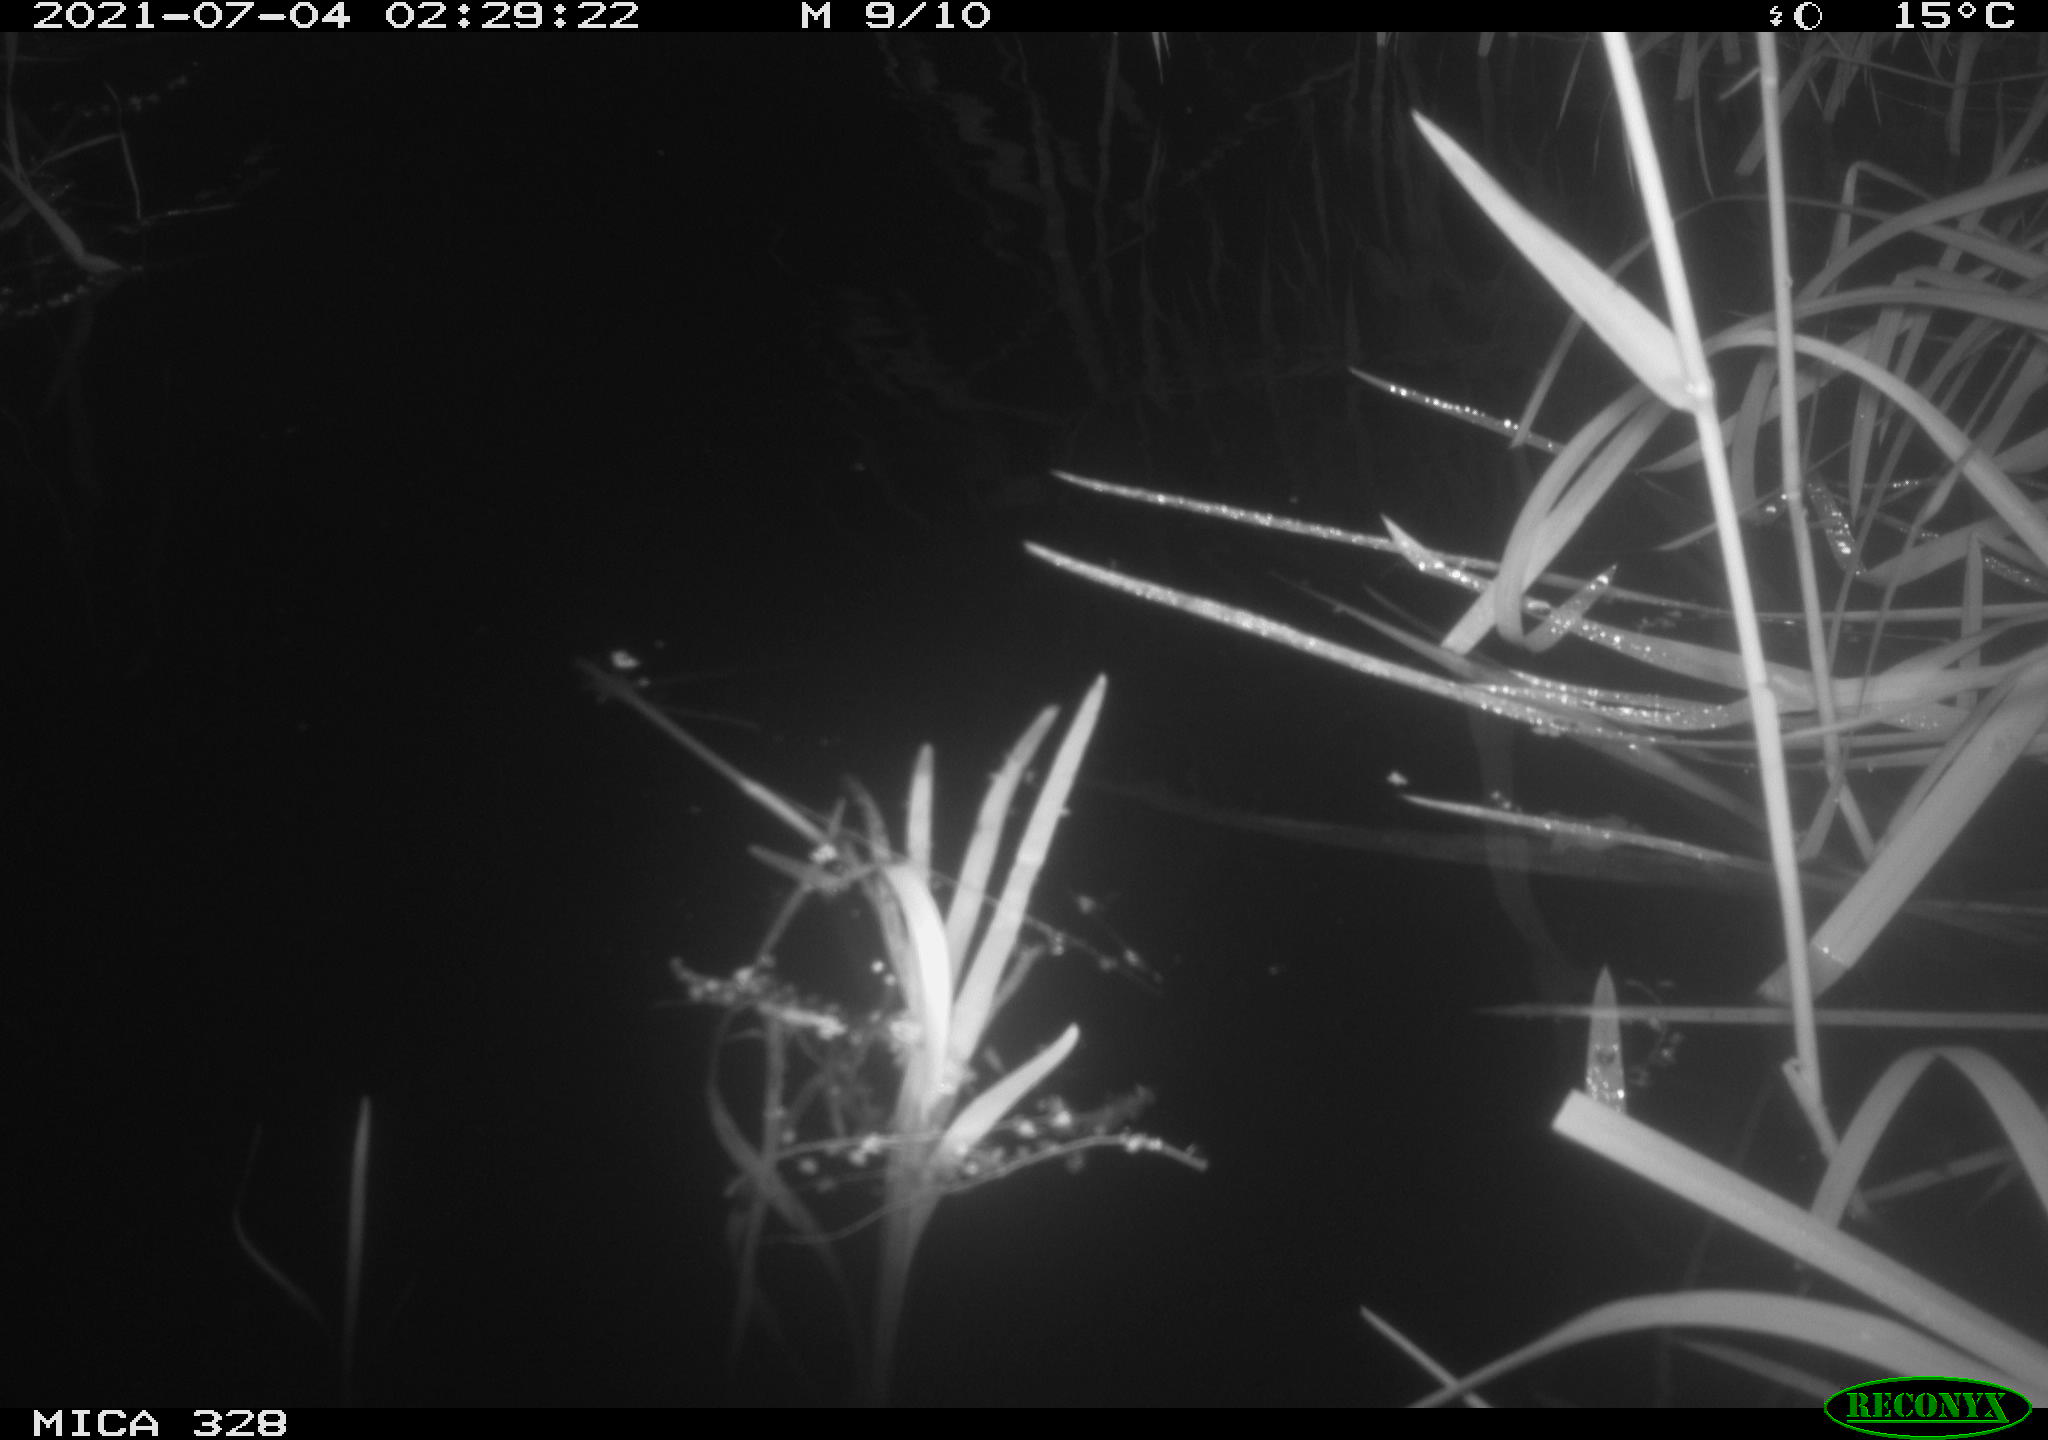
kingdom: Animalia
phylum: Chordata
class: Mammalia
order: Rodentia
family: Cricetidae
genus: Ondatra
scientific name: Ondatra zibethicus
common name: Muskrat
